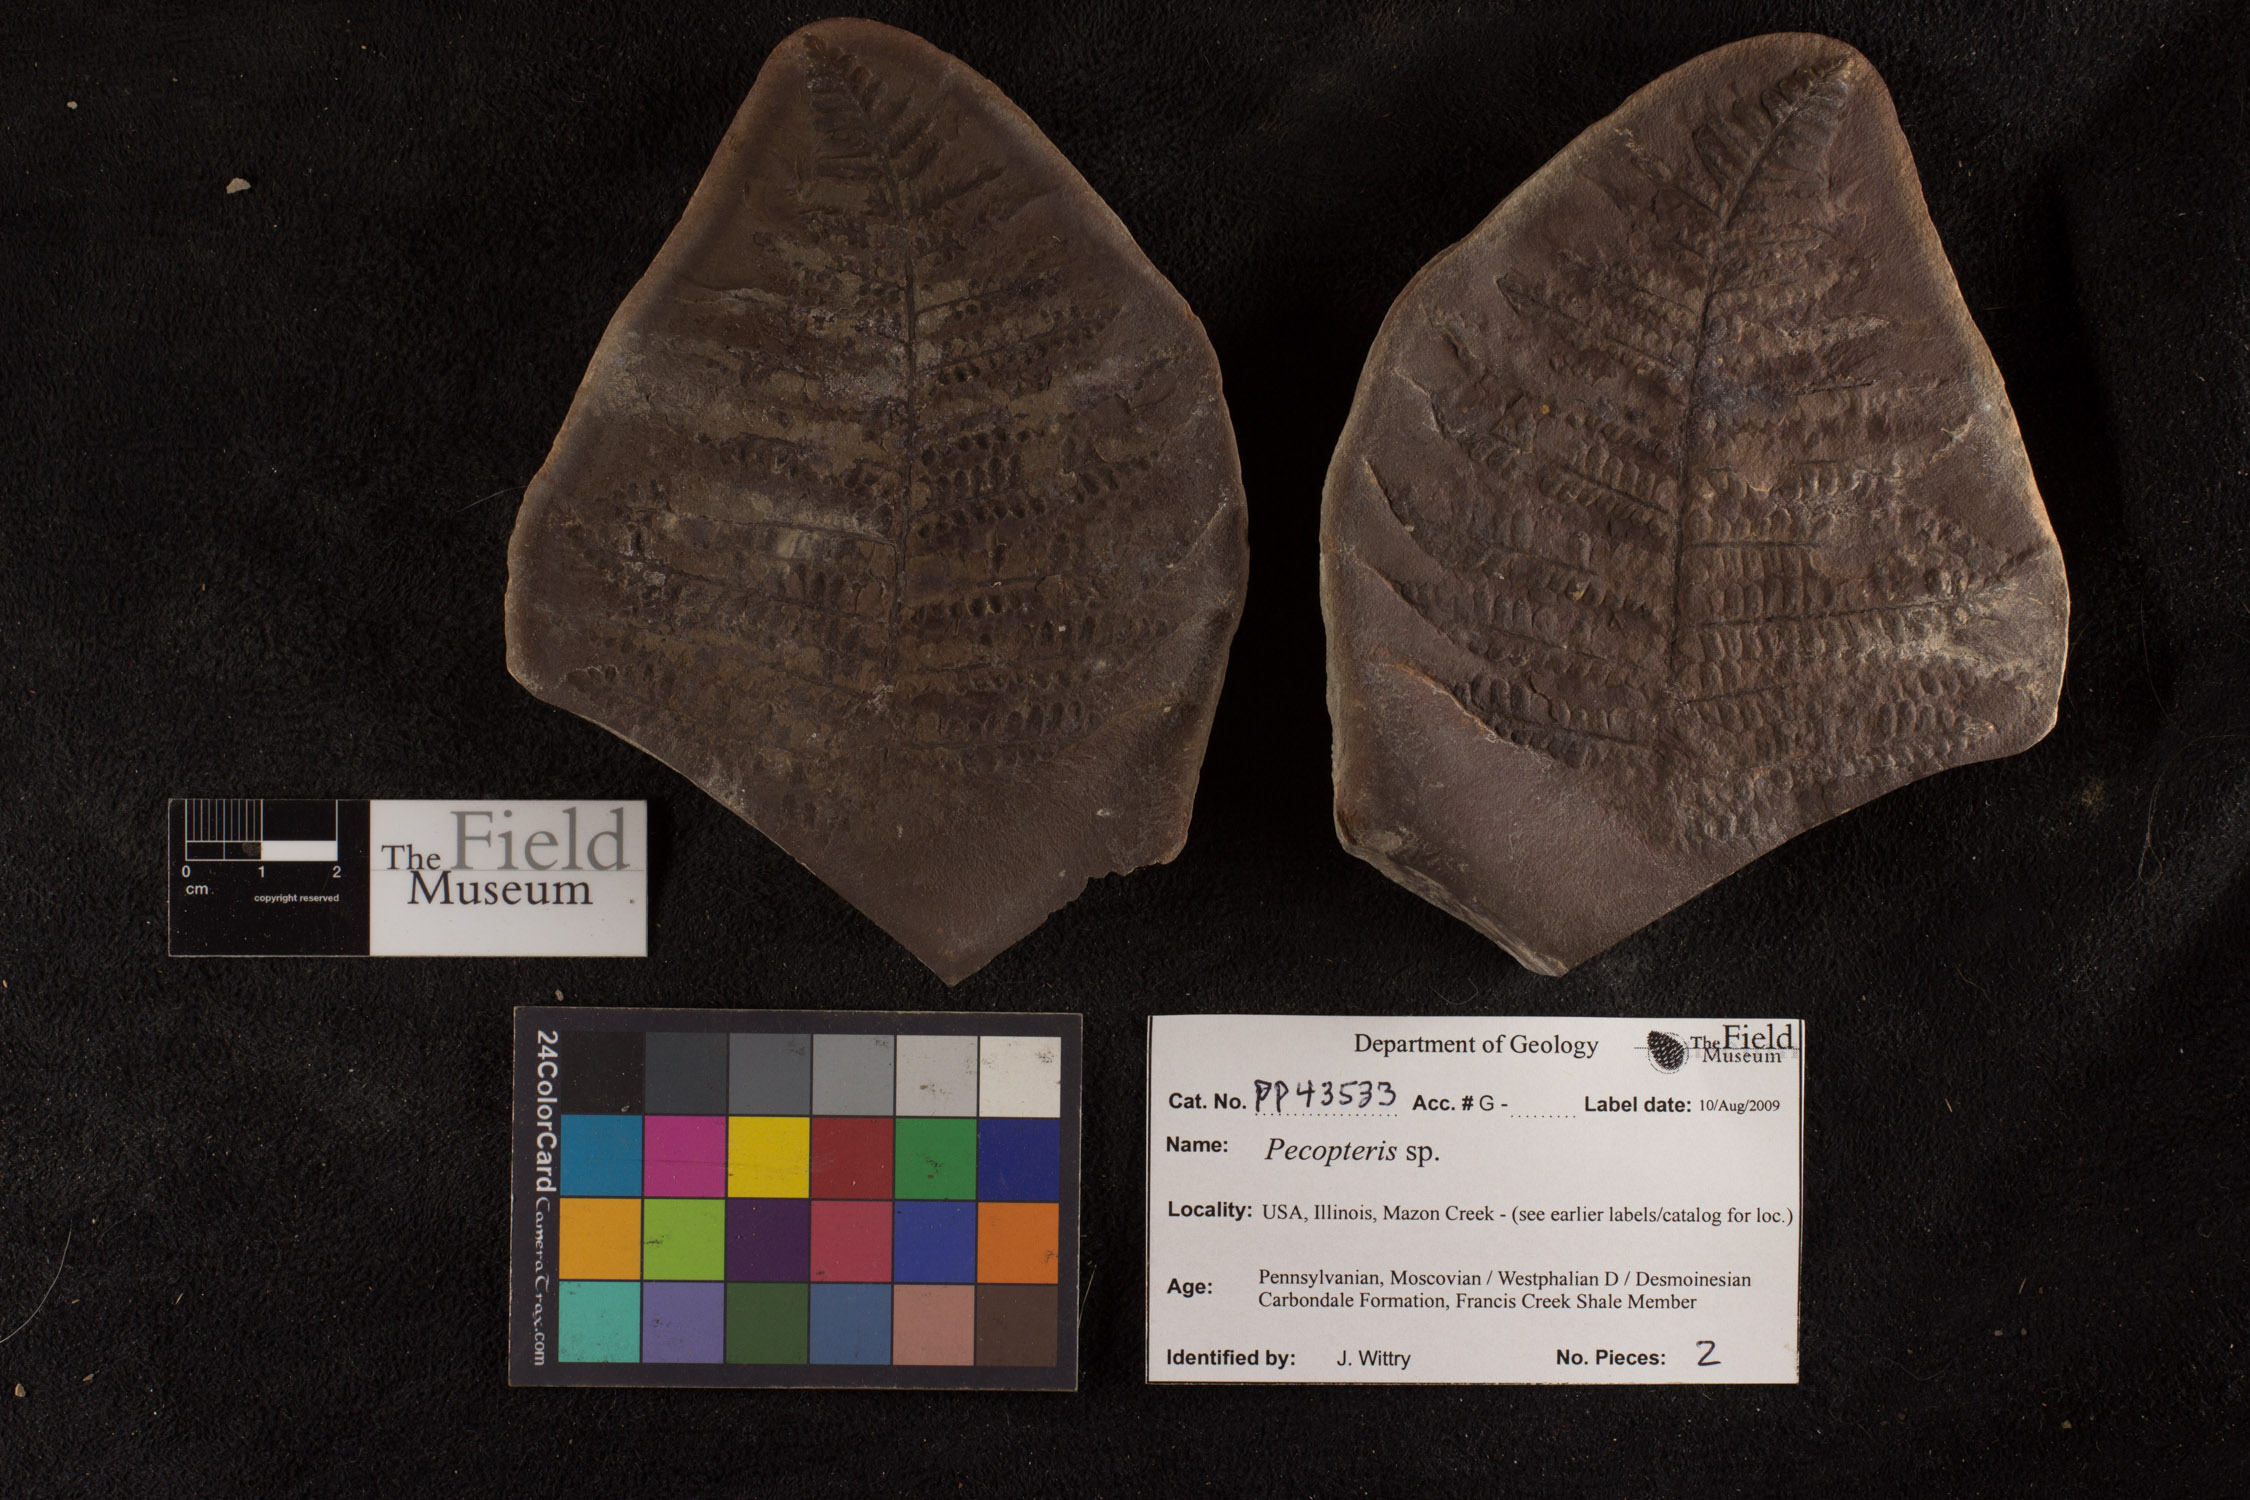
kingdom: Plantae
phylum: Tracheophyta
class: Polypodiopsida
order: Marattiales
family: Asterothecaceae
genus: Pecopteris
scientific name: Pecopteris
